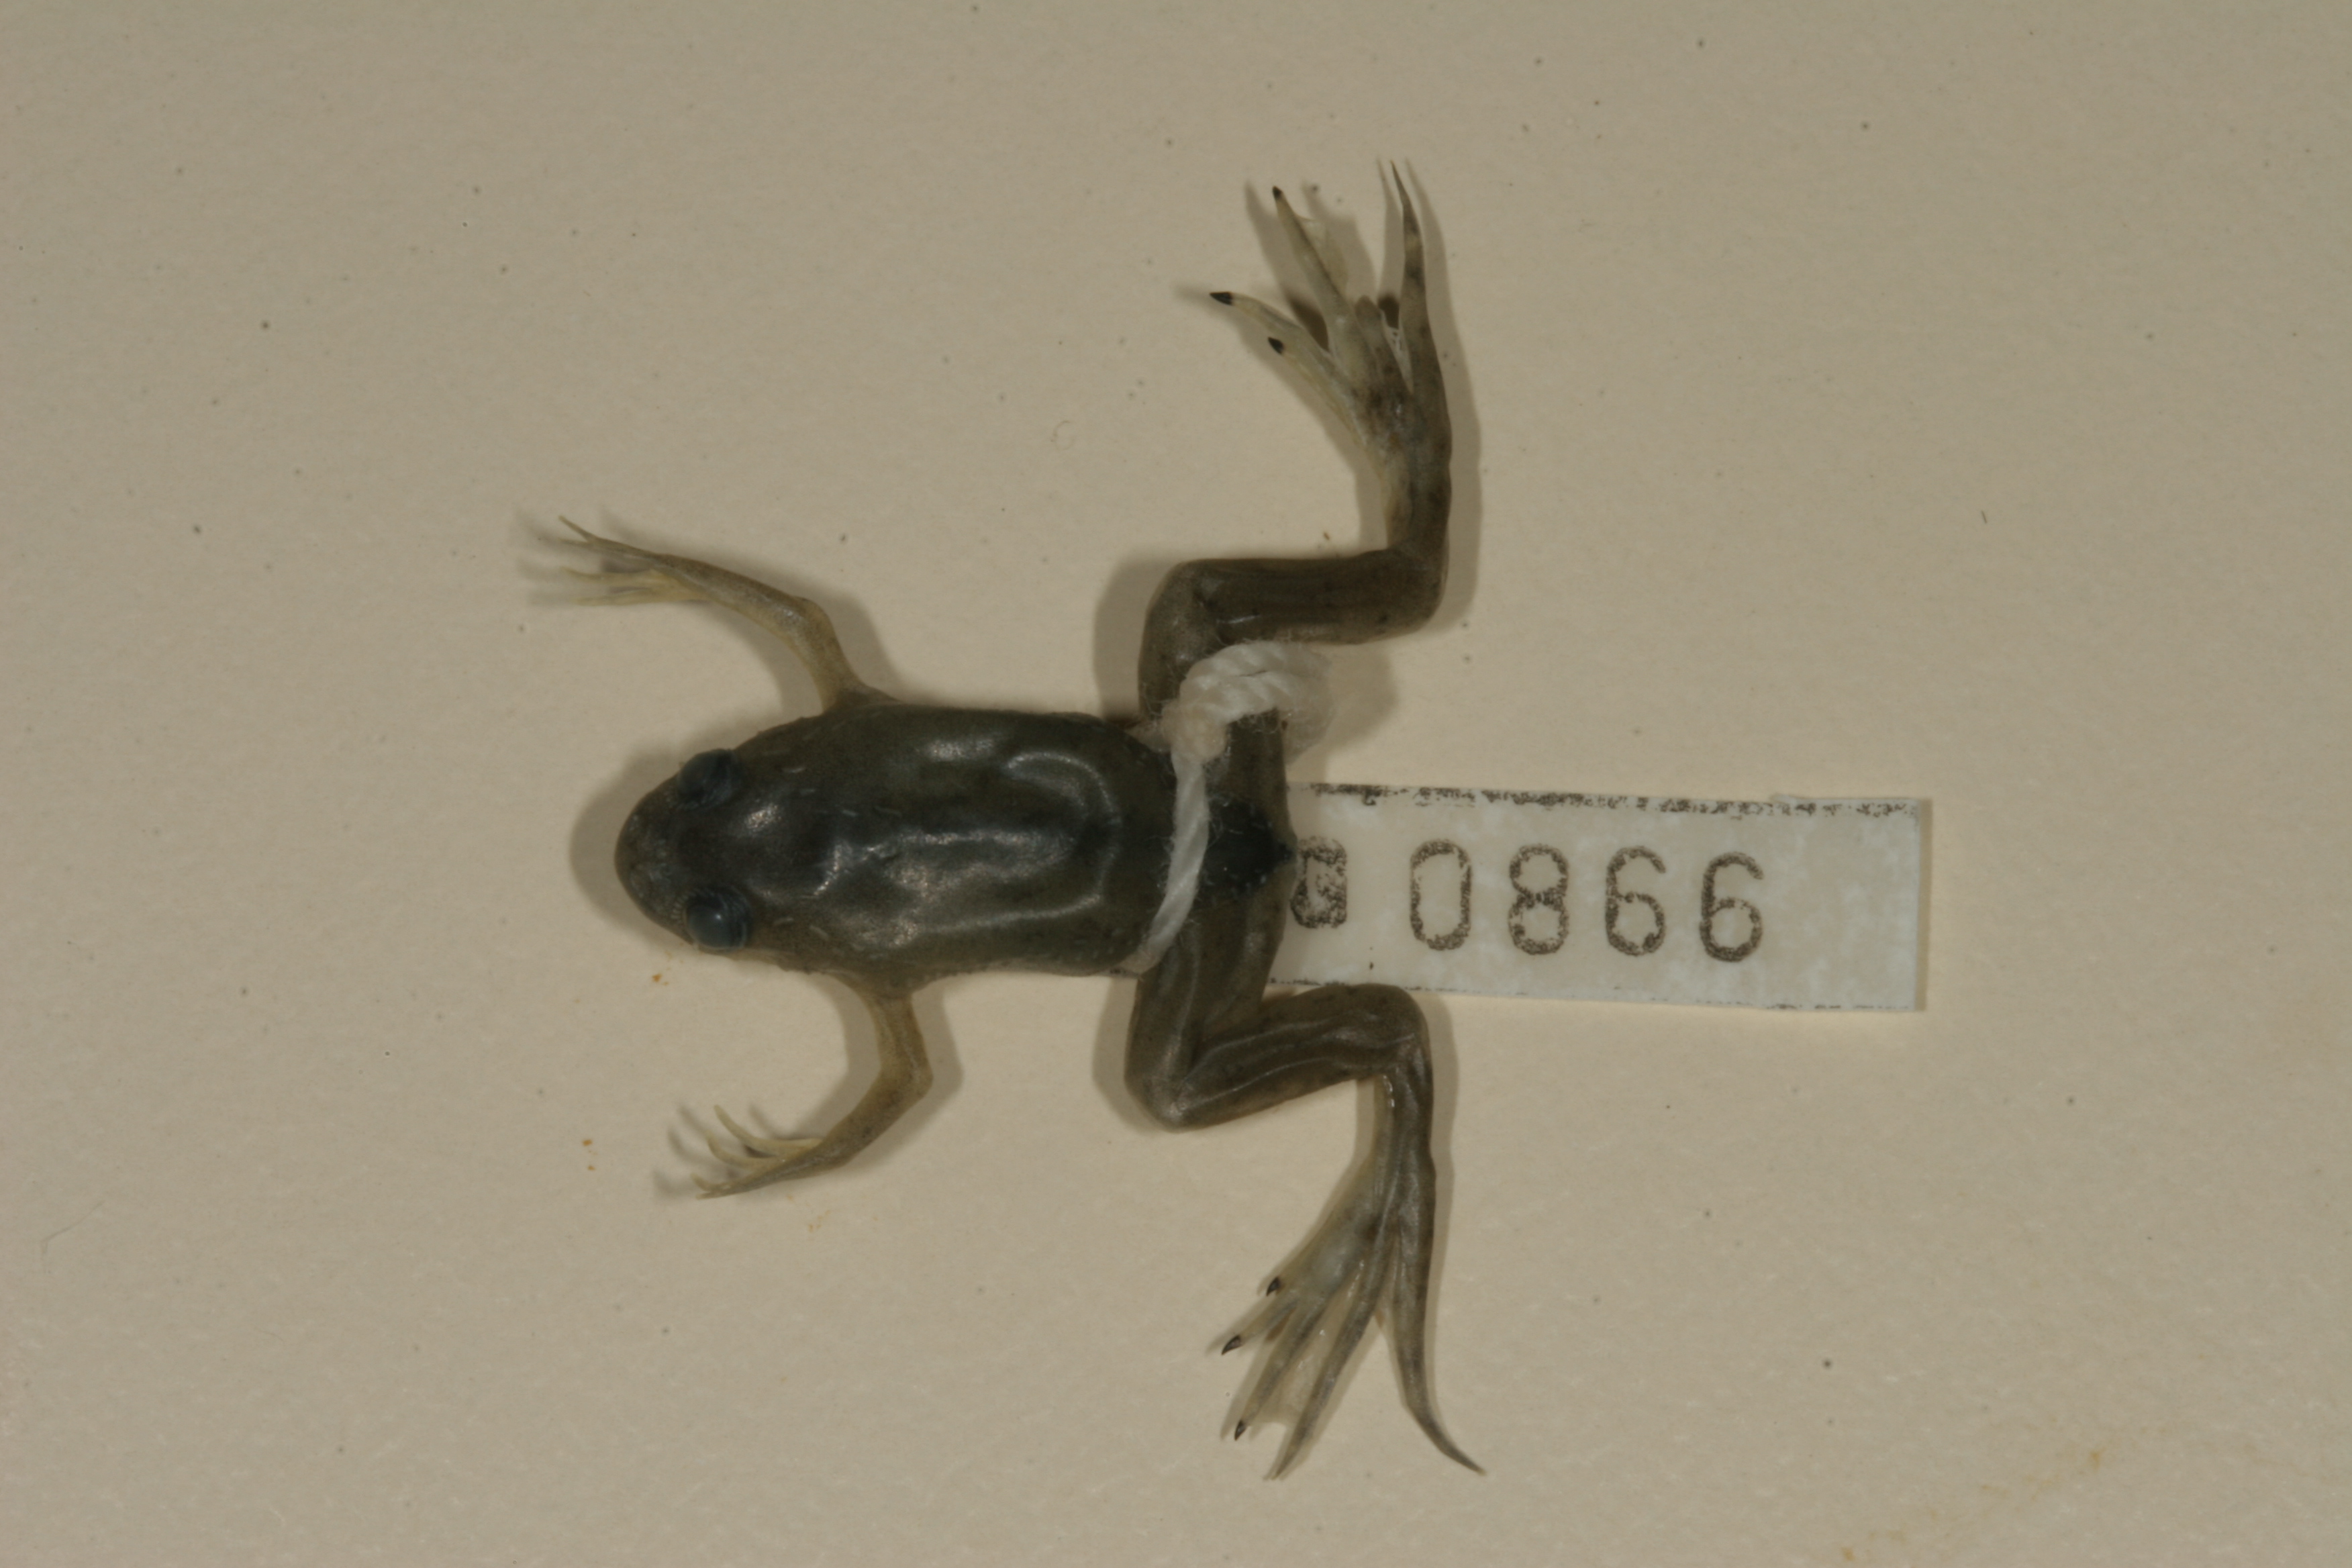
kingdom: Animalia
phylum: Chordata
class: Amphibia
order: Anura
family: Pipidae
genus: Xenopus
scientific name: Xenopus laevis
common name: African clawed frog
